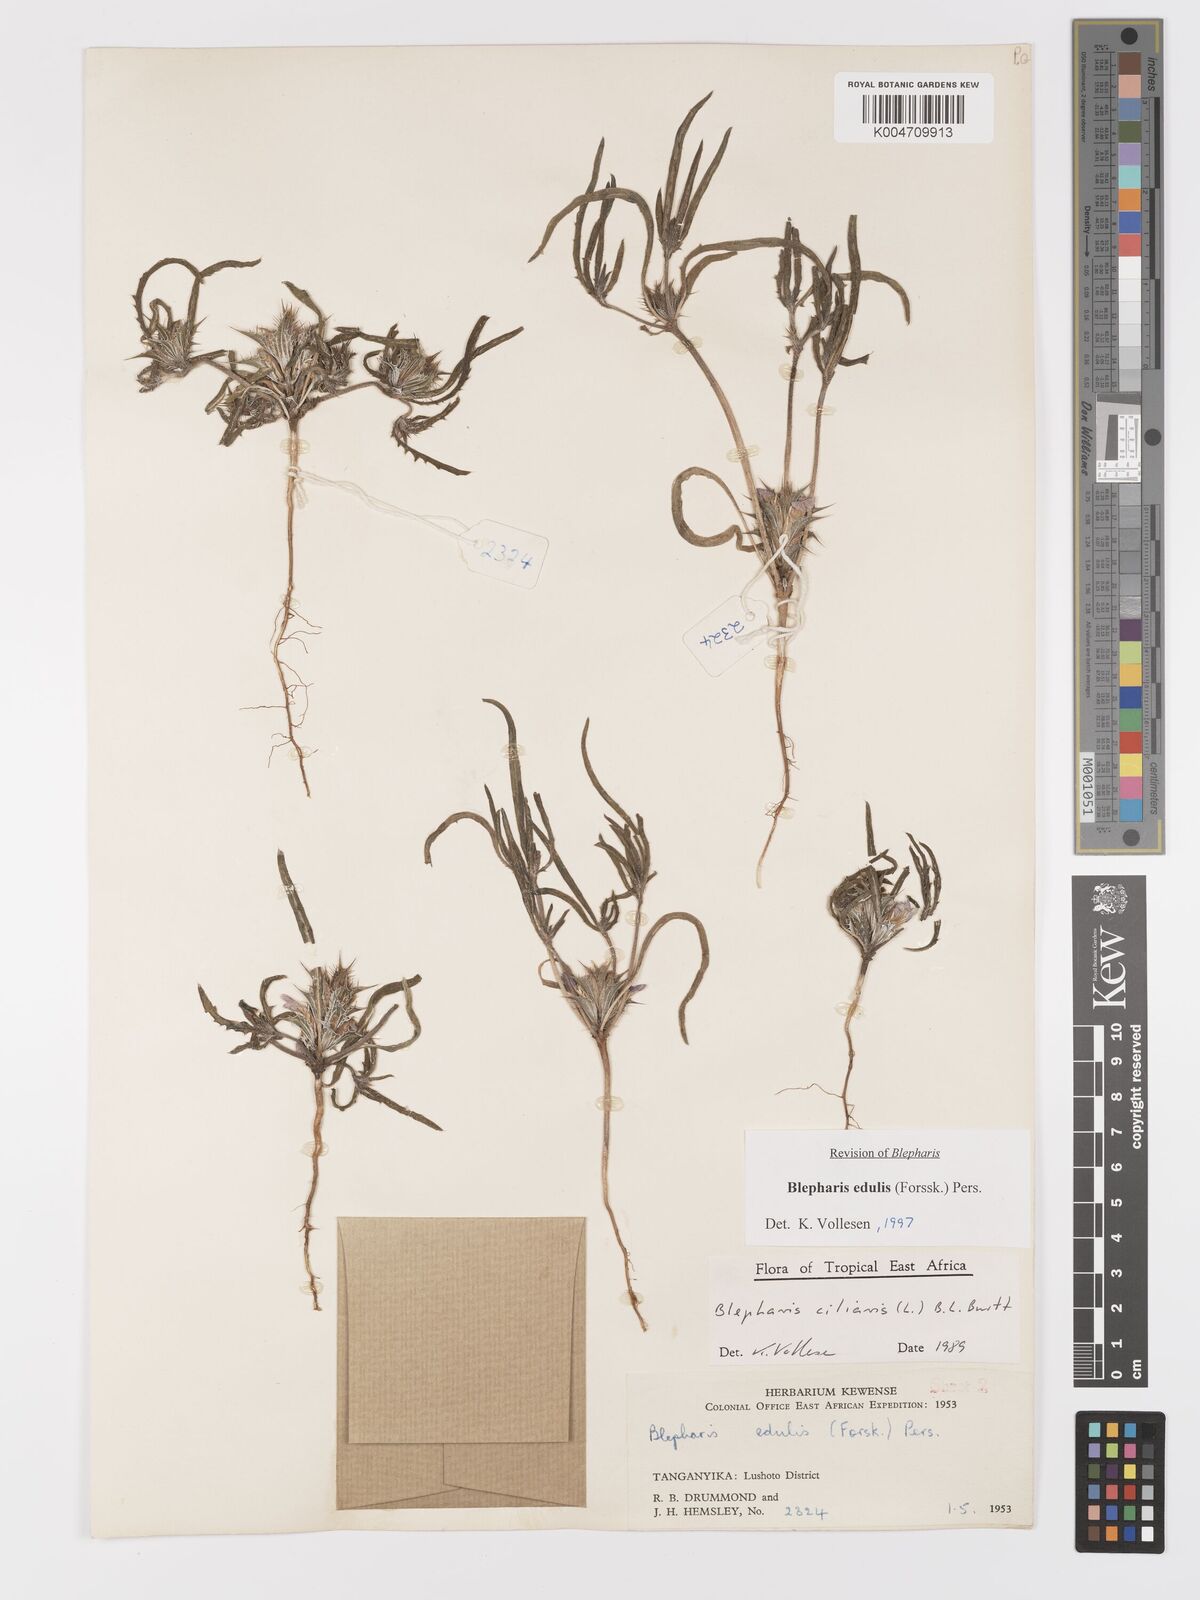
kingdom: Plantae
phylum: Tracheophyta
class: Magnoliopsida
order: Lamiales
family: Acanthaceae
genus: Blepharis
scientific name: Blepharis edulis
